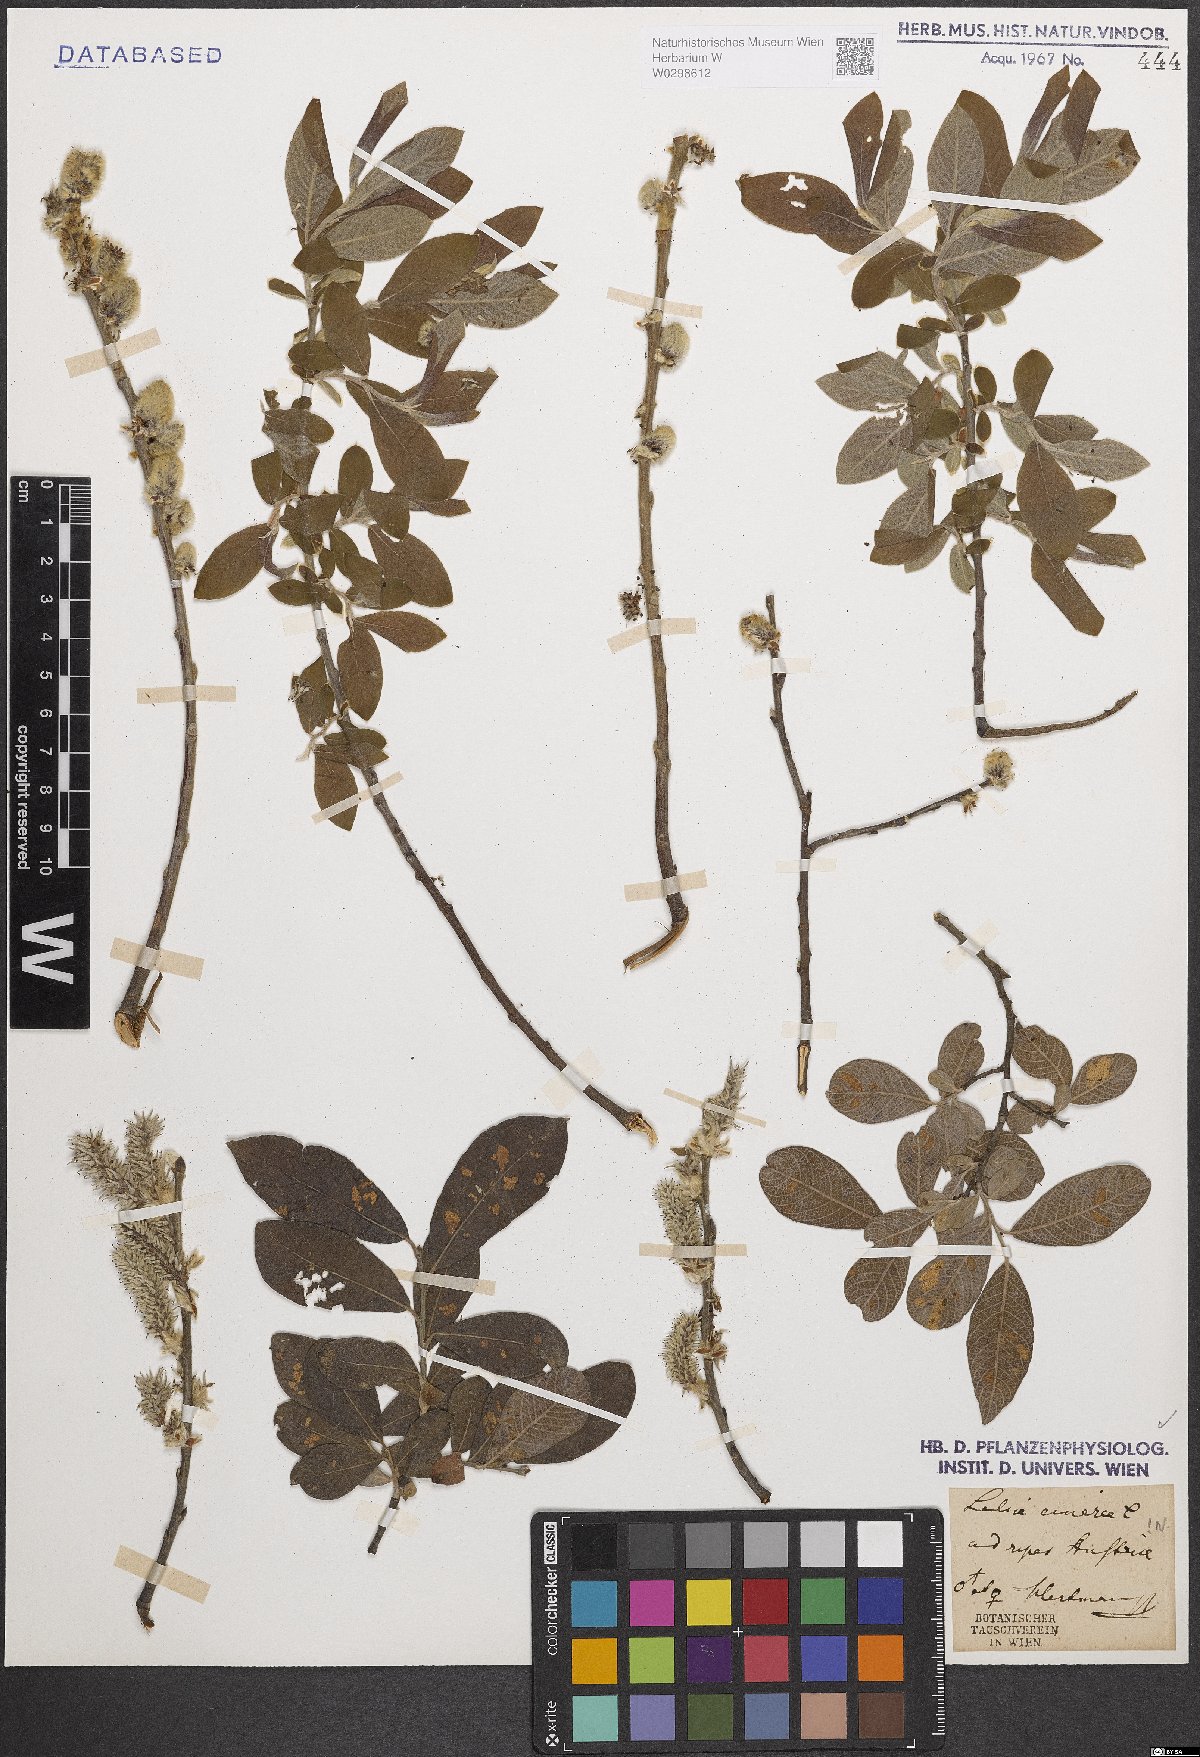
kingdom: Plantae
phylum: Tracheophyta
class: Magnoliopsida
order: Malpighiales
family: Salicaceae
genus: Salix
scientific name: Salix cinerea
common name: Common sallow
